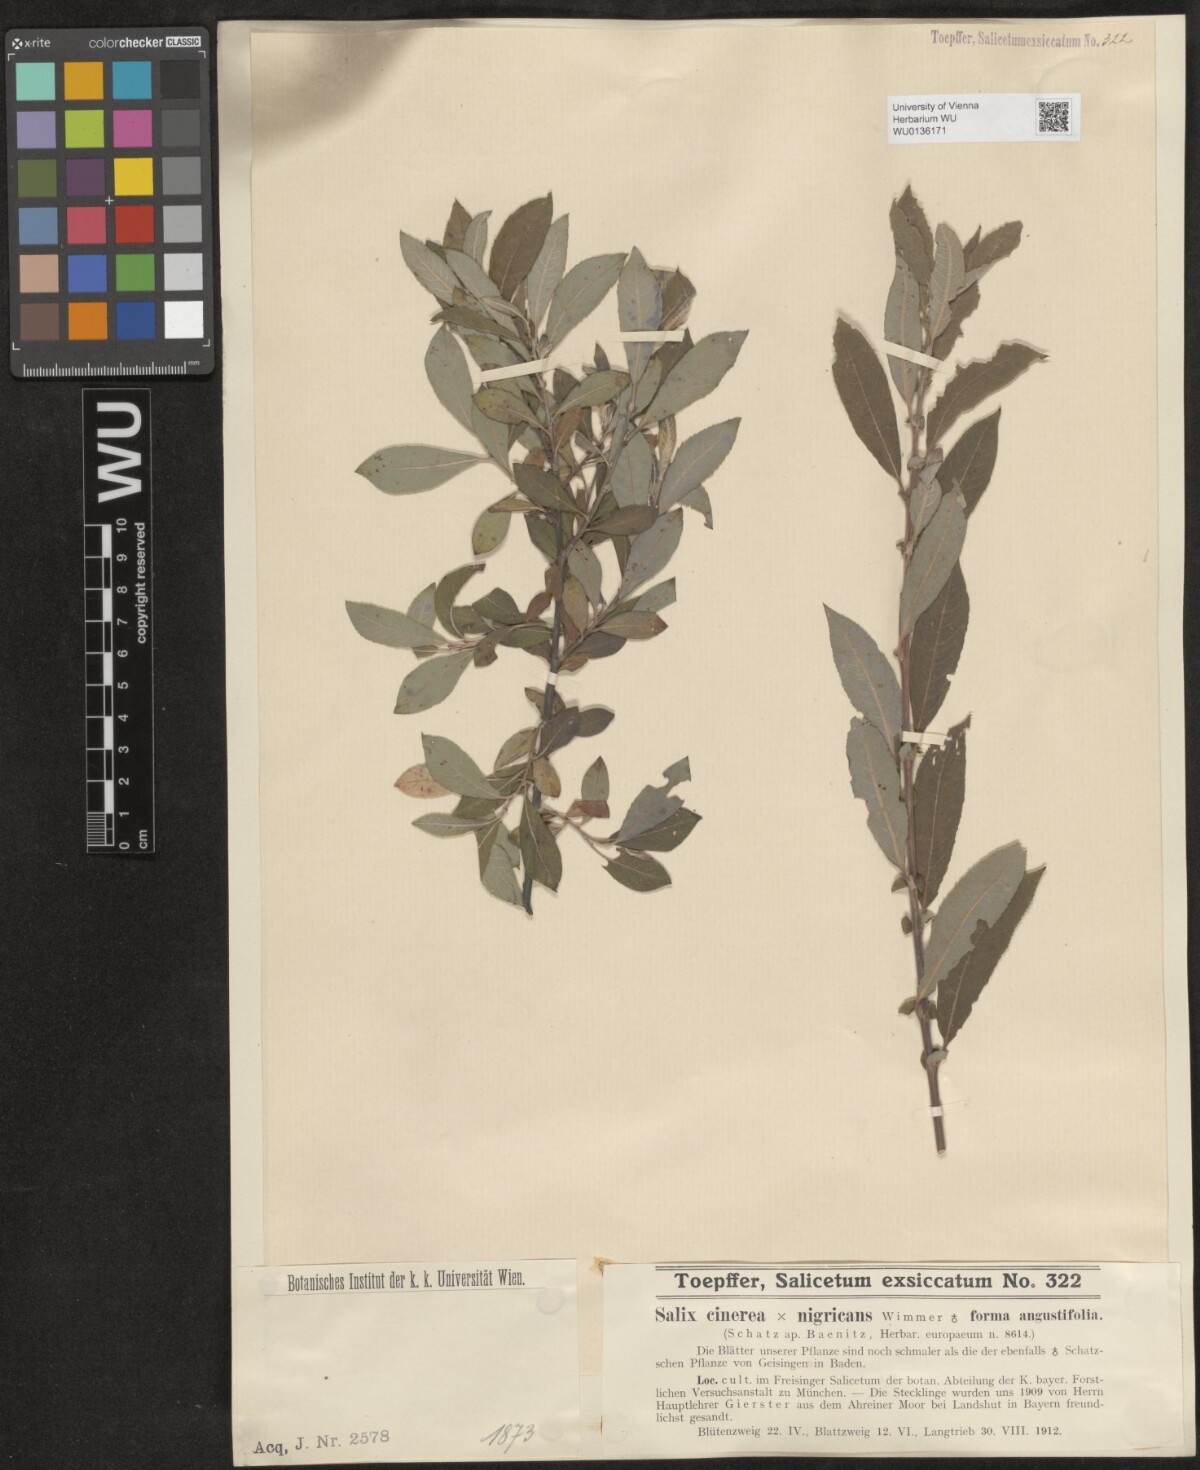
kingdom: Plantae
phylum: Tracheophyta
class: Magnoliopsida
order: Malpighiales
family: Salicaceae
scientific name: Salicaceae
